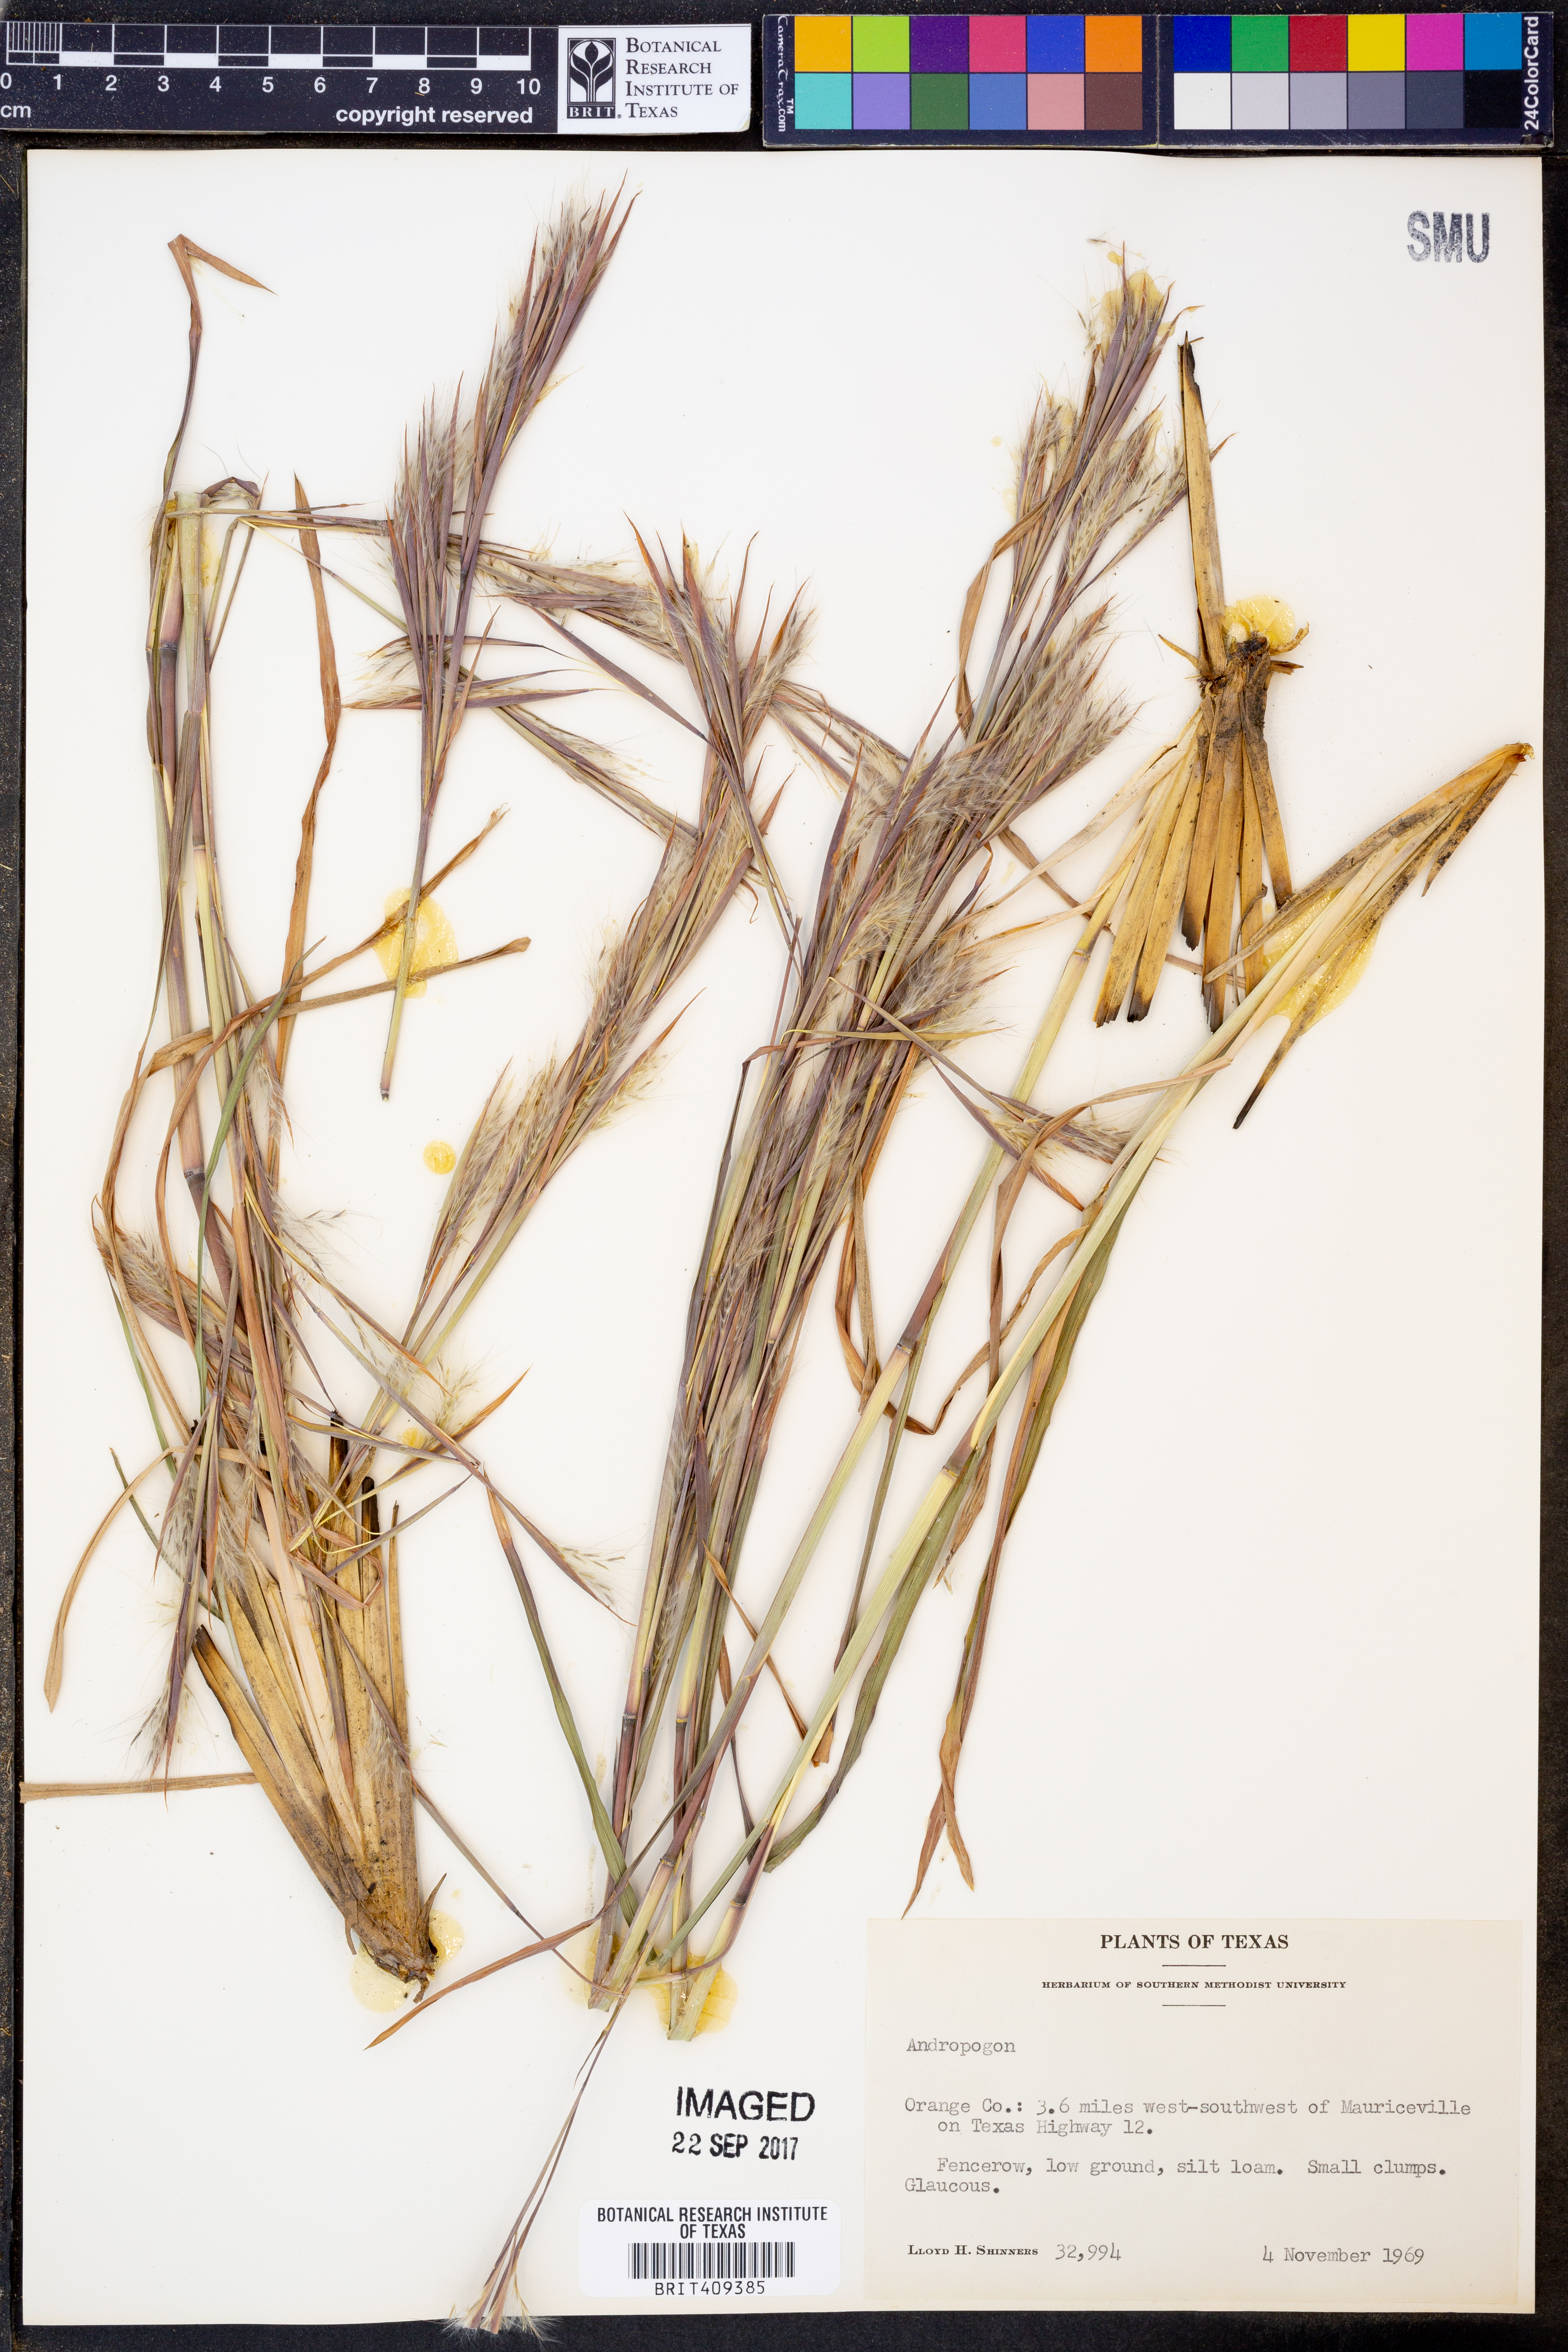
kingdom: Plantae
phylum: Tracheophyta
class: Liliopsida
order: Poales
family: Poaceae
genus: Andropogon
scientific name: Andropogon
